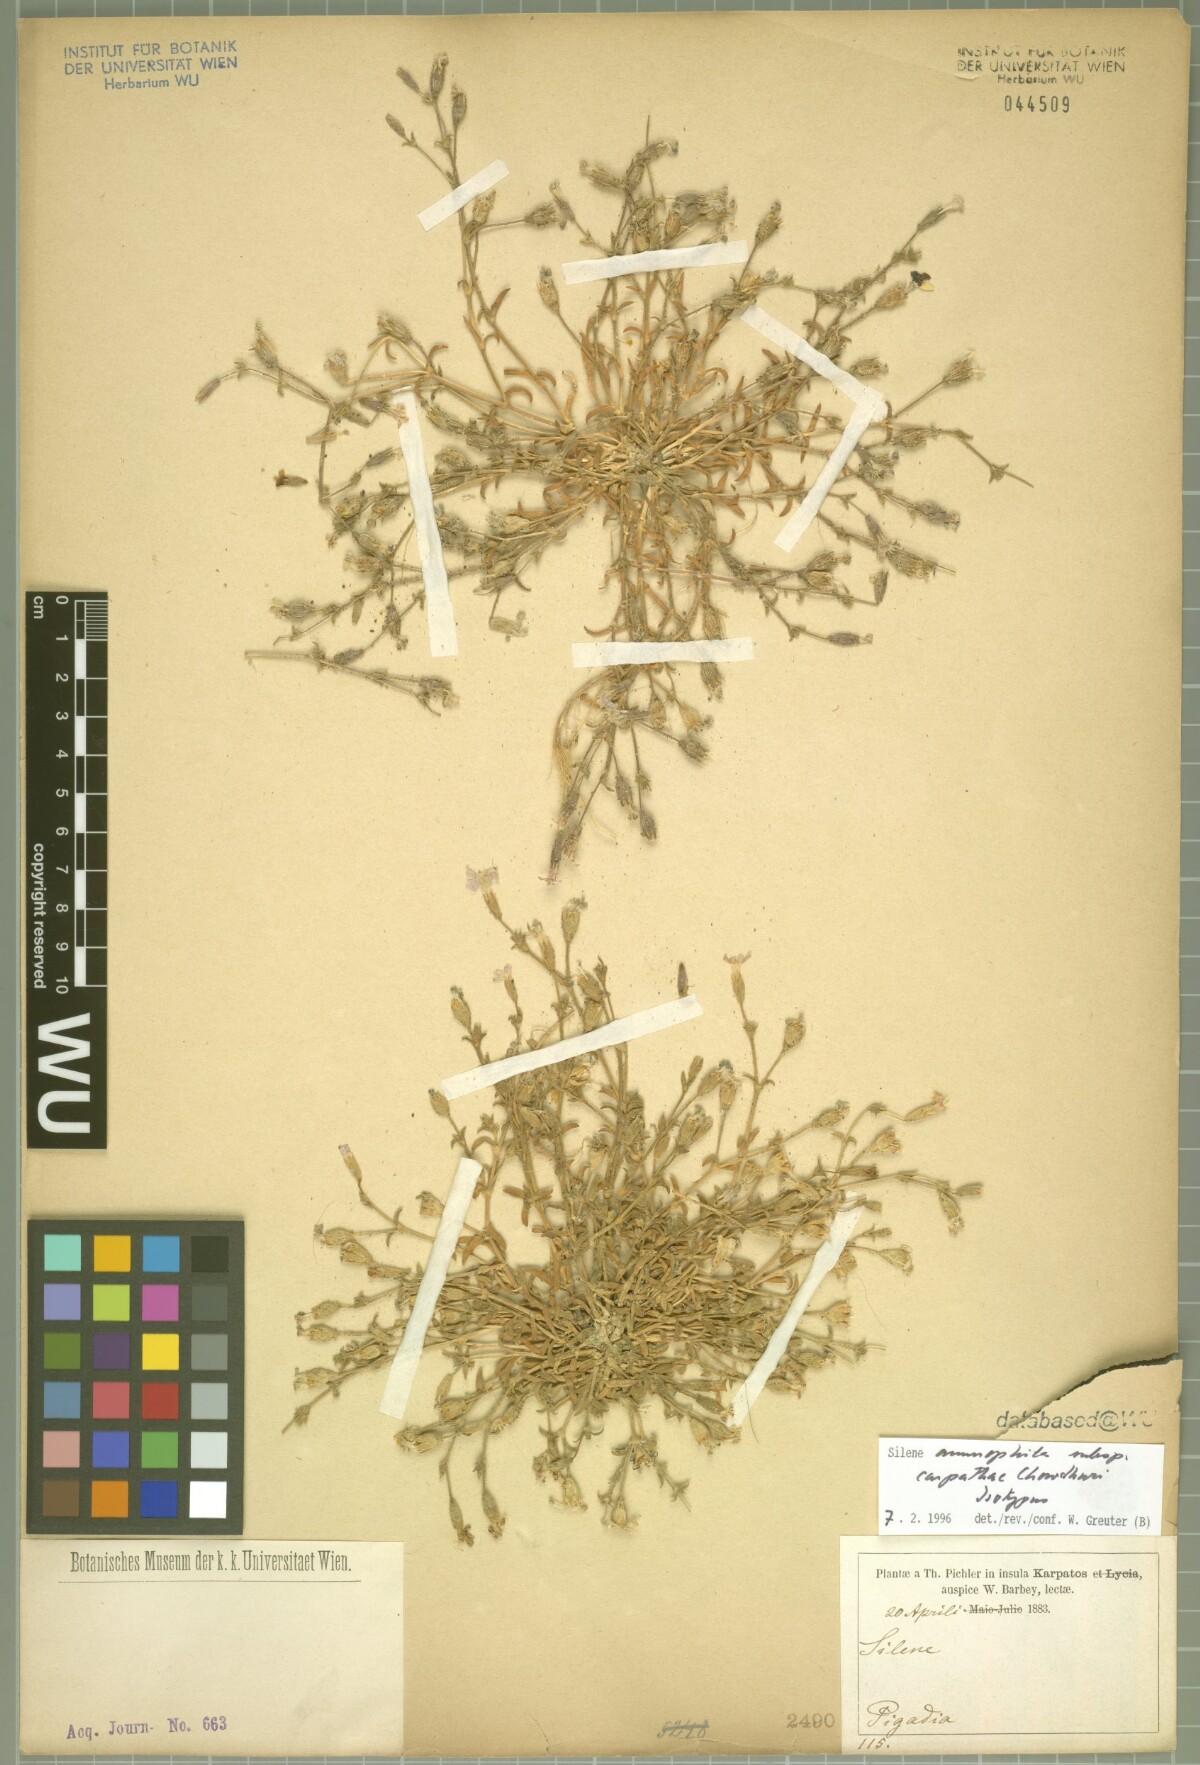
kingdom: Plantae
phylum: Tracheophyta
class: Magnoliopsida
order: Caryophyllales
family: Caryophyllaceae
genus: Silene
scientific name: Silene ammophila
